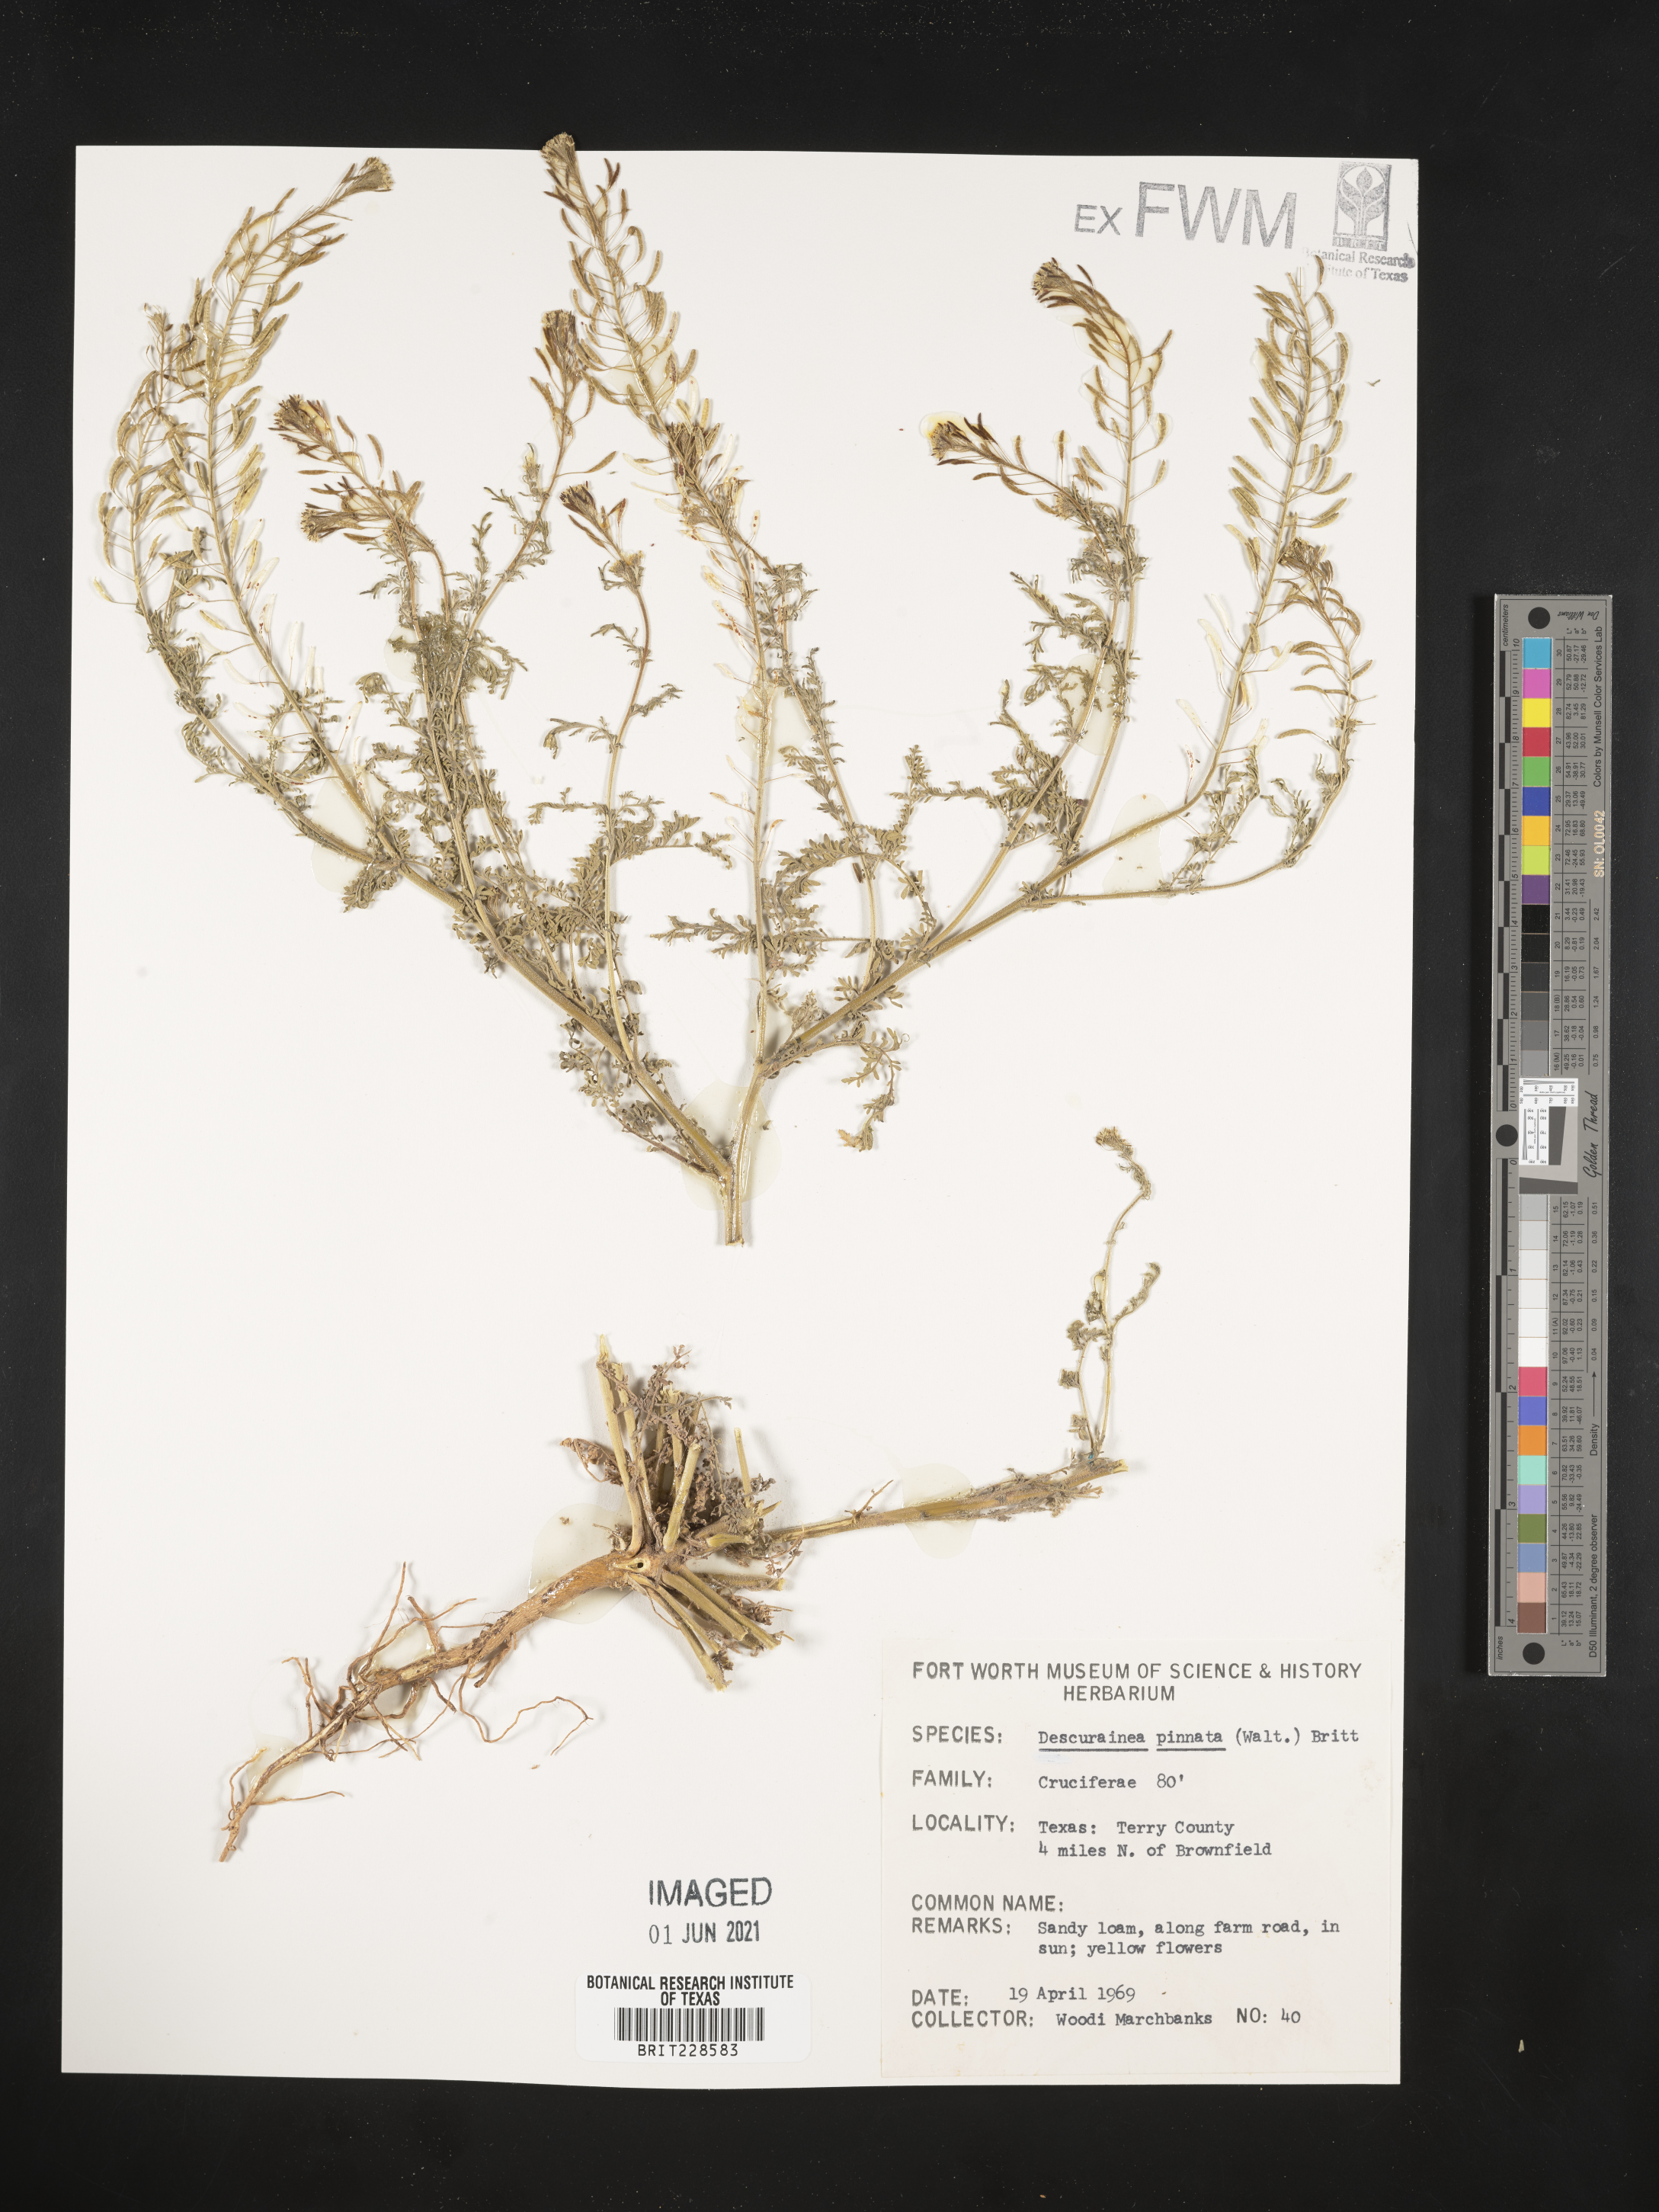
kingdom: Plantae
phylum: Tracheophyta
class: Magnoliopsida
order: Brassicales
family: Brassicaceae
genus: Descurainia
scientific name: Descurainia pinnata
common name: Western tansy mustard
